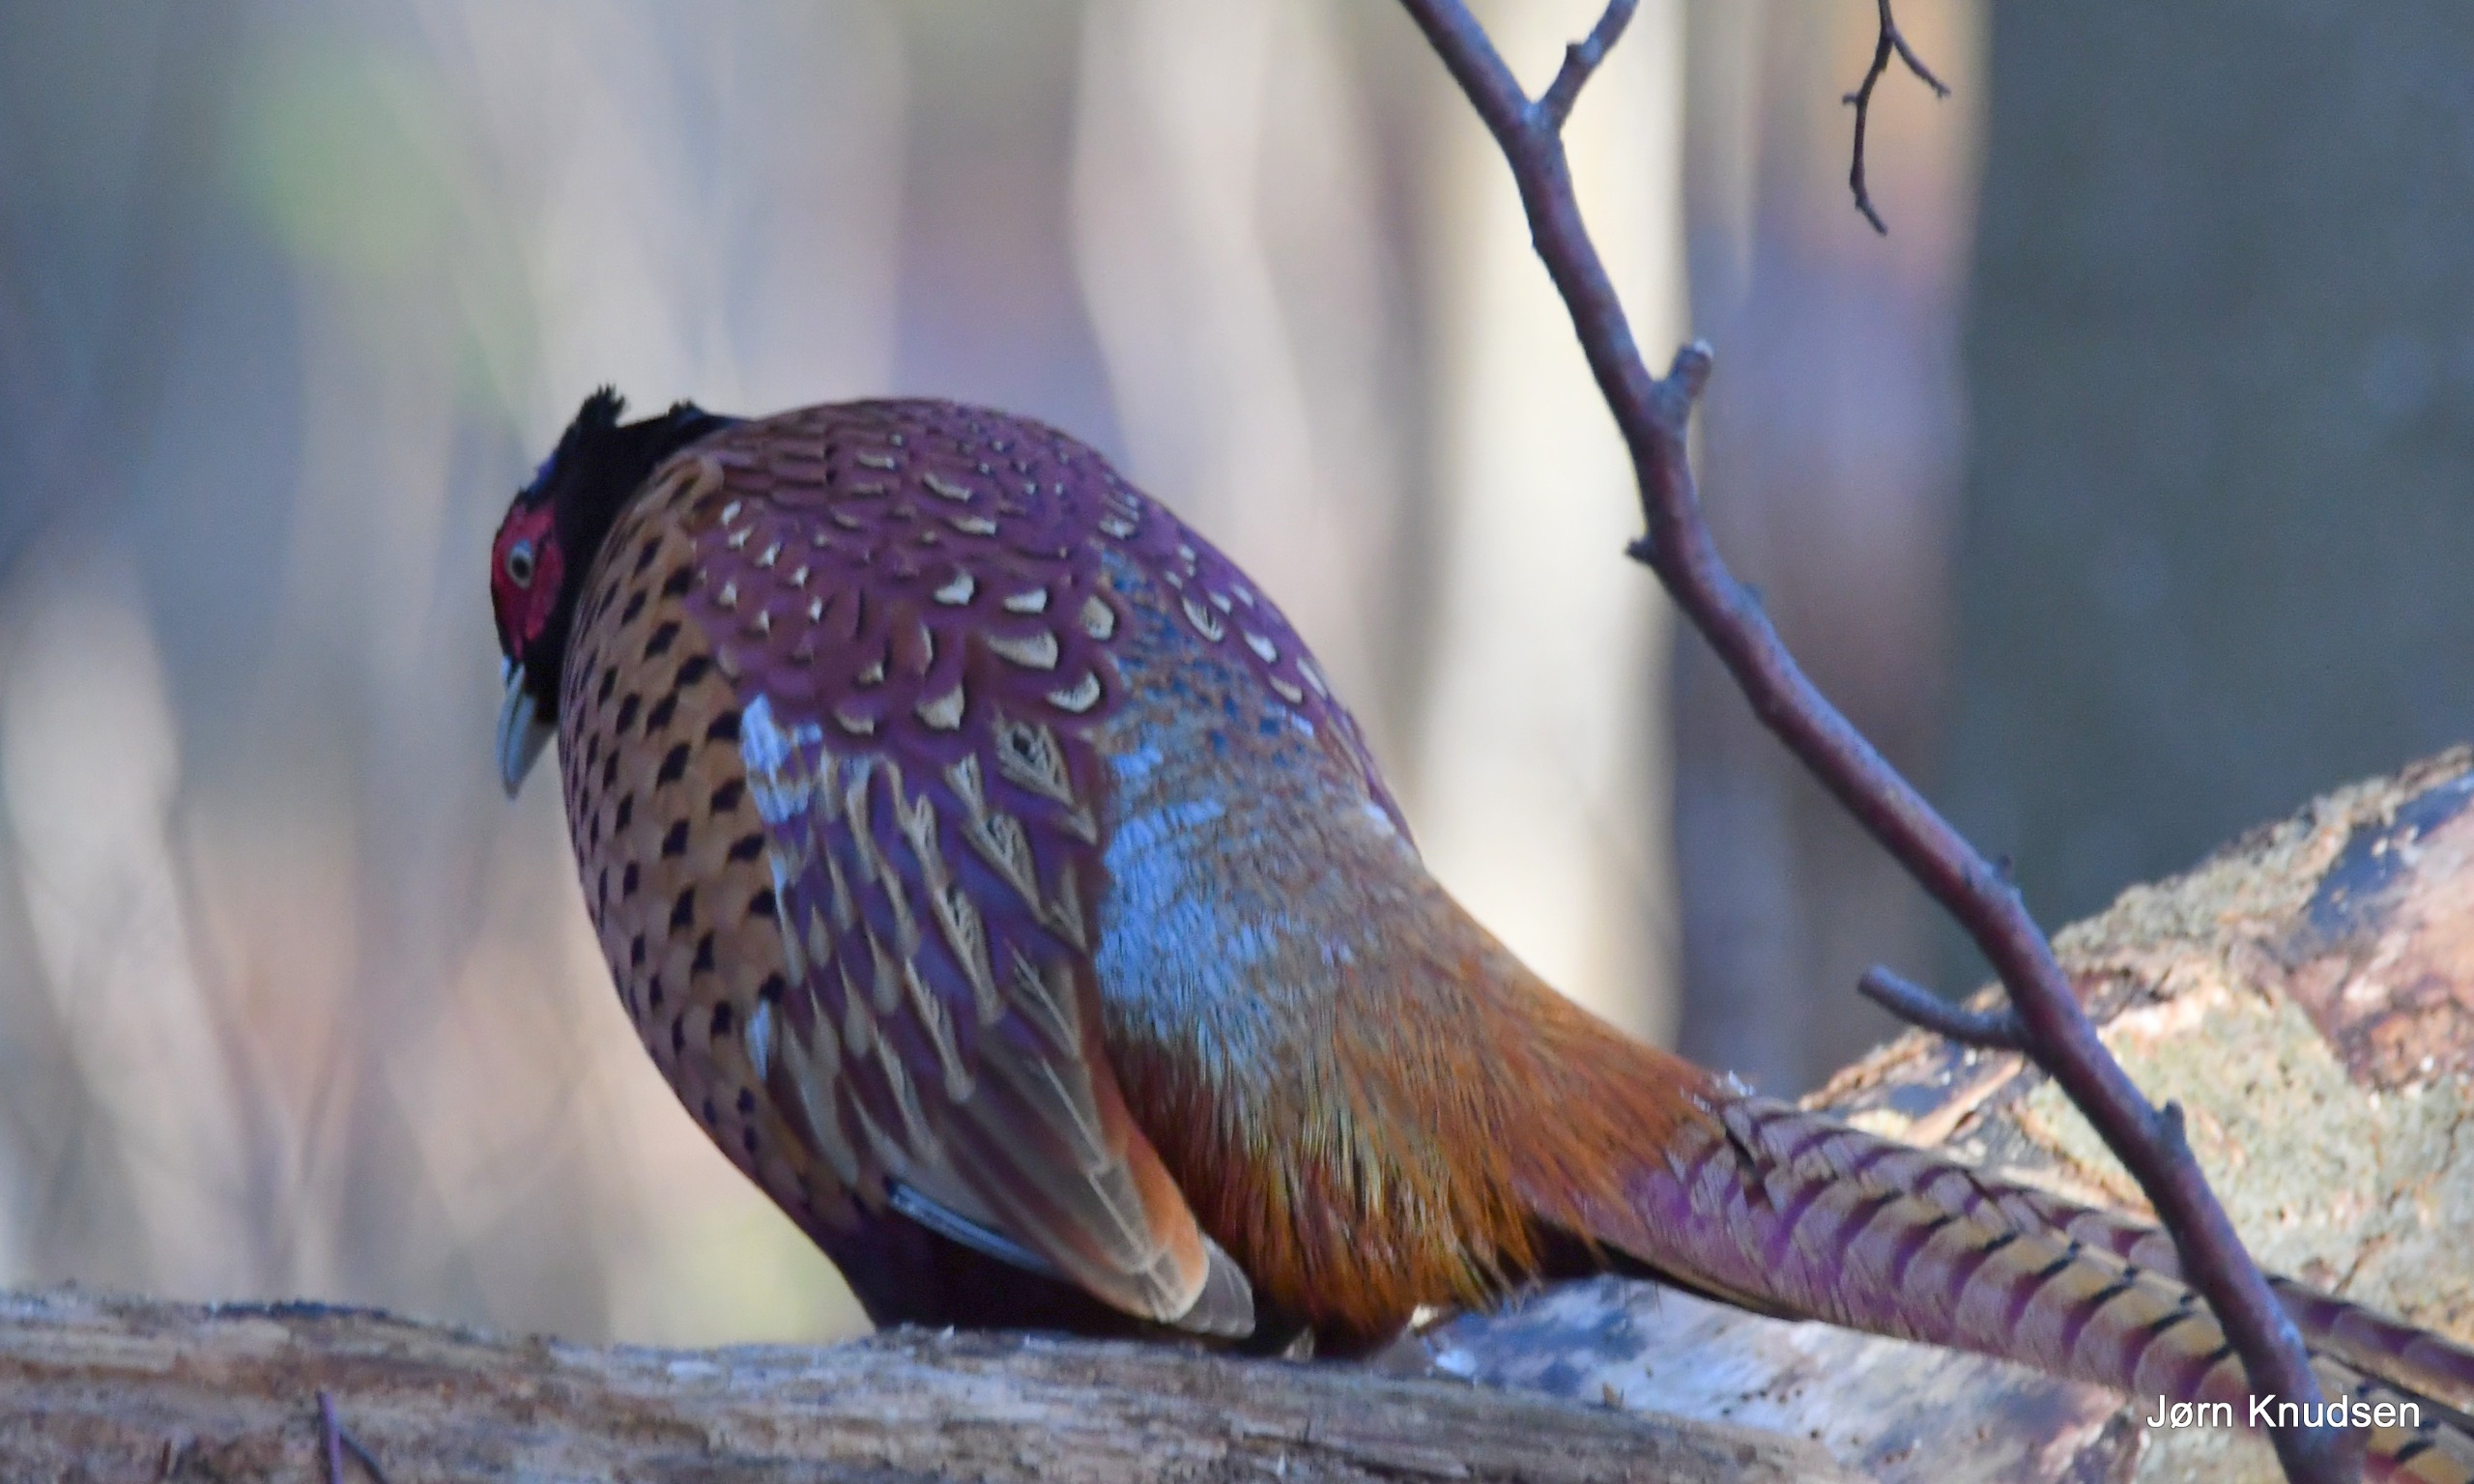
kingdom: Animalia
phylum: Chordata
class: Aves
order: Galliformes
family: Phasianidae
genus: Phasianus
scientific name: Phasianus colchicus
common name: Fasan
